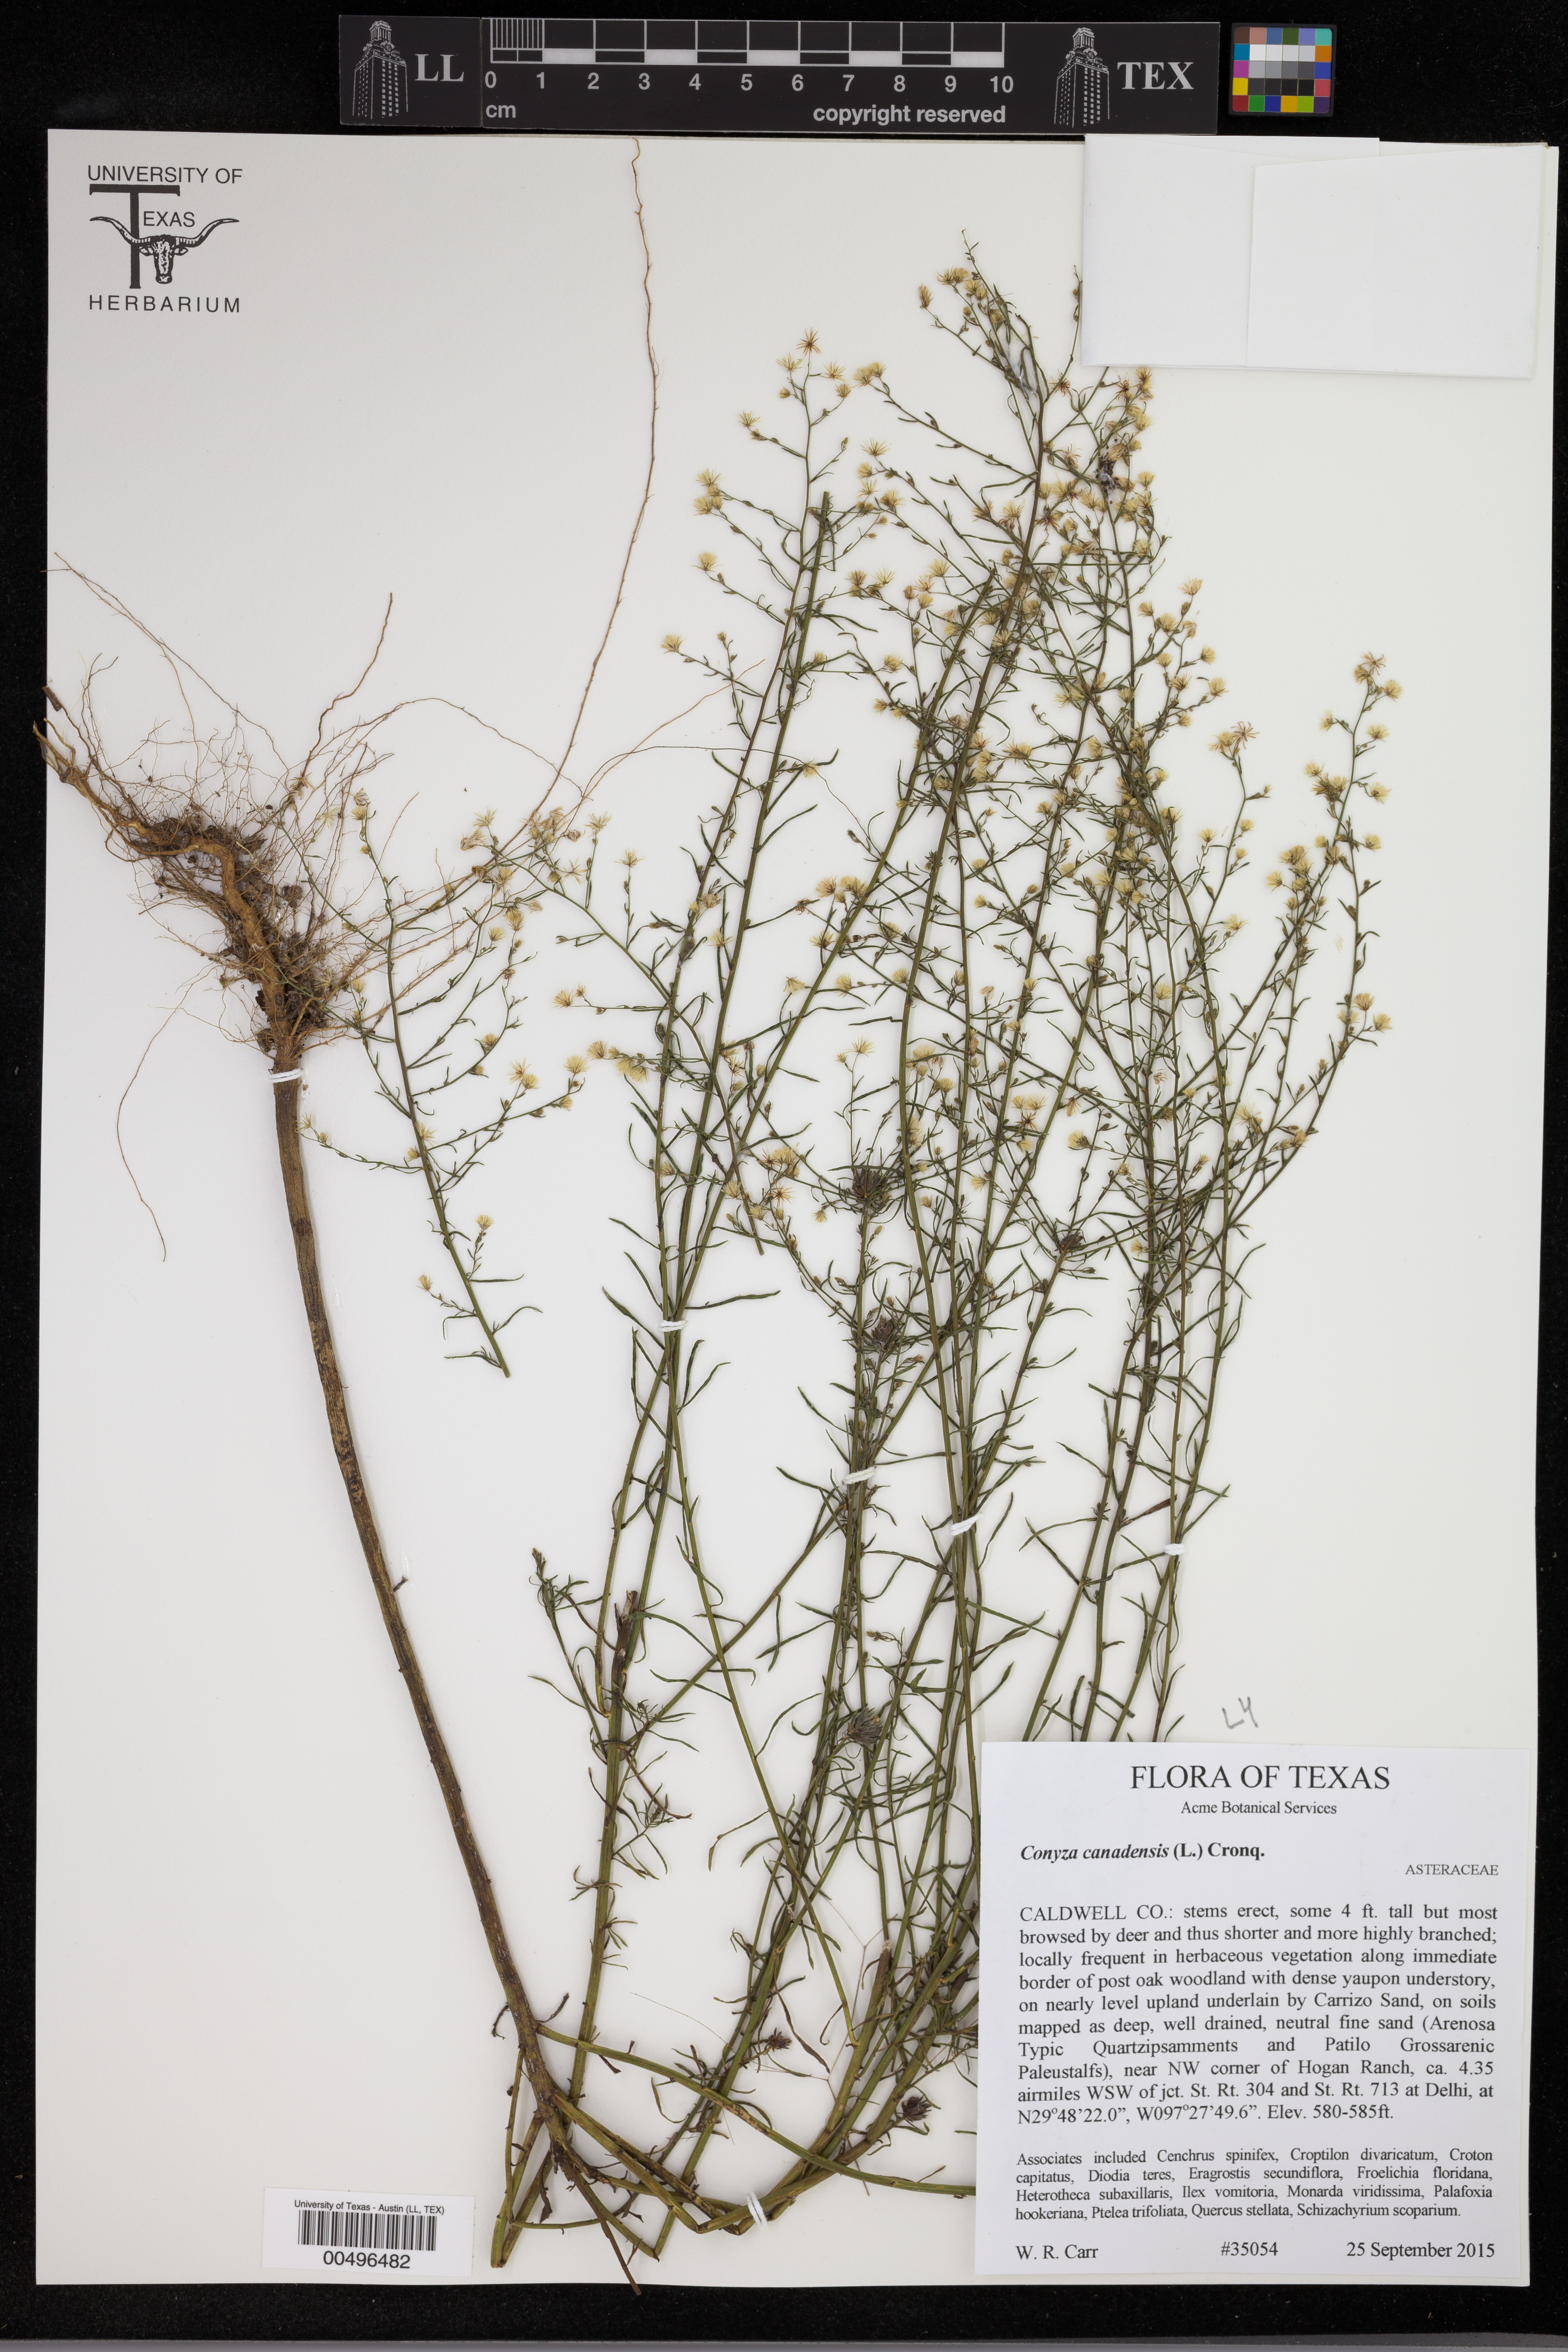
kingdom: Plantae
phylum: Tracheophyta
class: Magnoliopsida
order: Asterales
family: Asteraceae
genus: Erigeron
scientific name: Erigeron canadensis
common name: Canadian fleabane
